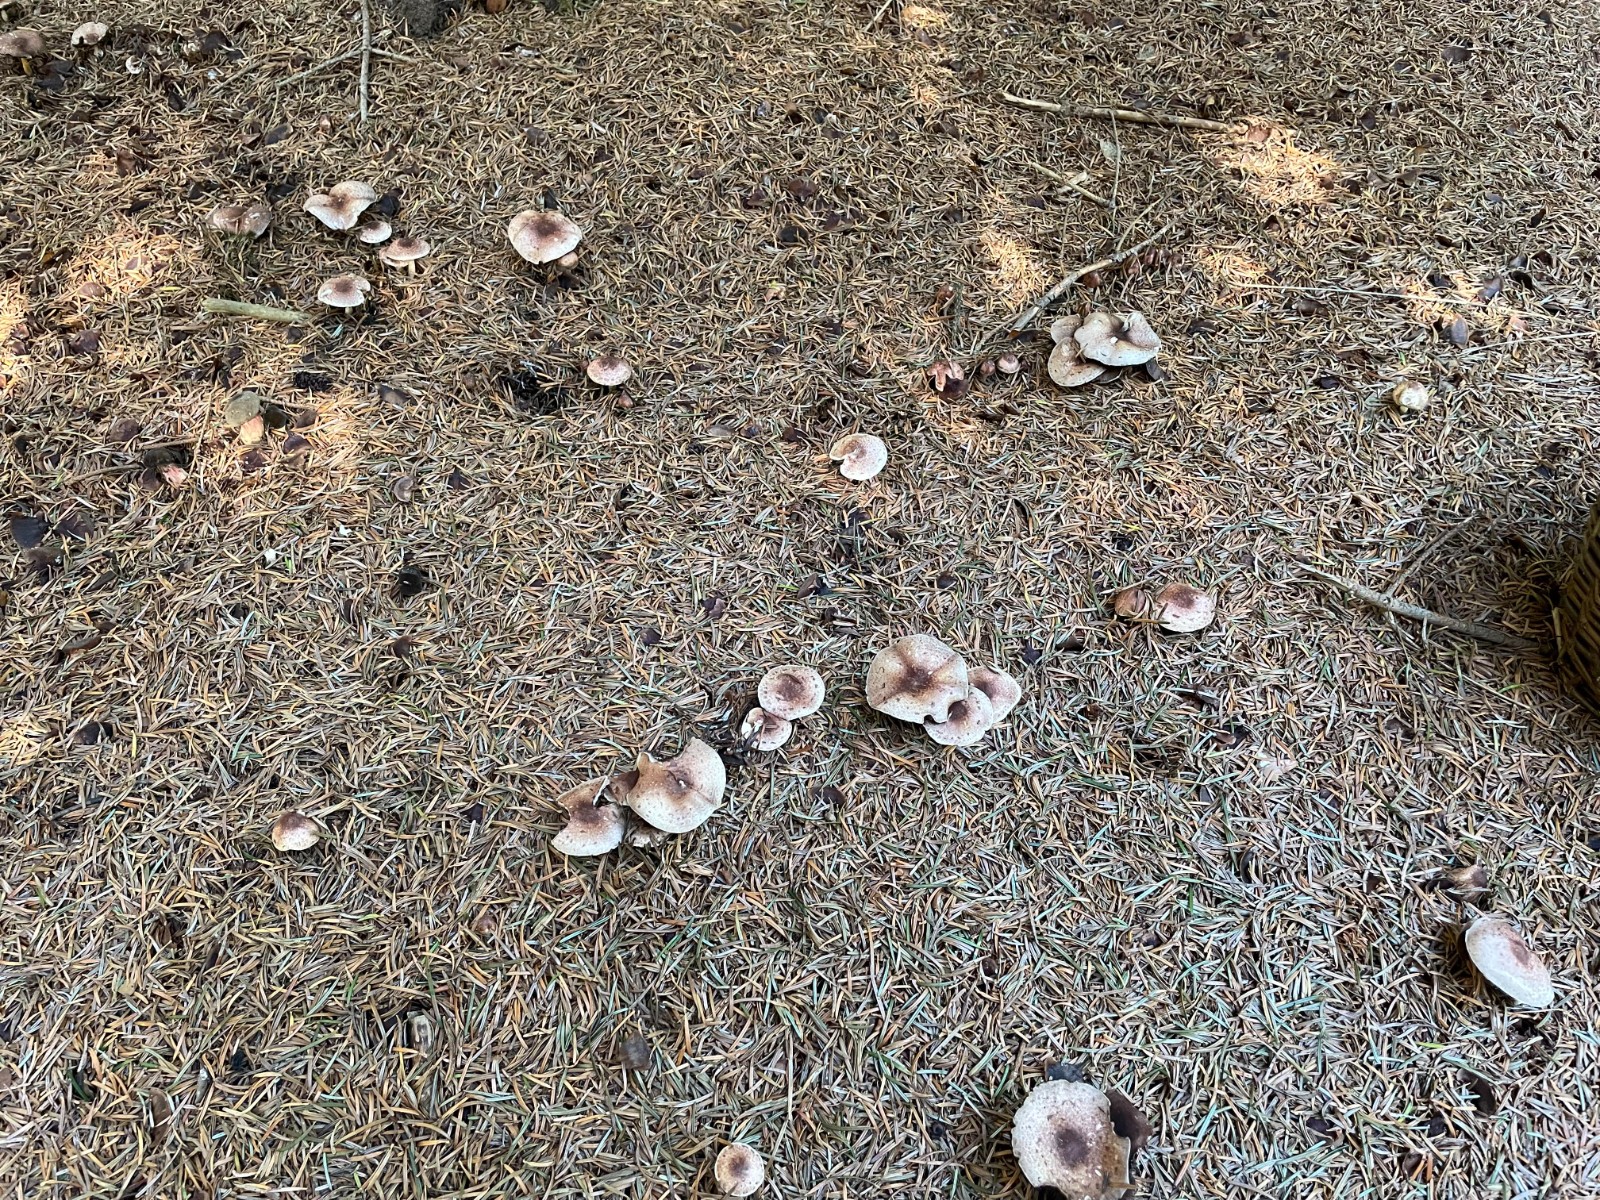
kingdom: Fungi
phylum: Basidiomycota
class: Agaricomycetes
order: Agaricales
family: Agaricaceae
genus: Agaricus
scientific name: Agaricus dulcidulus
